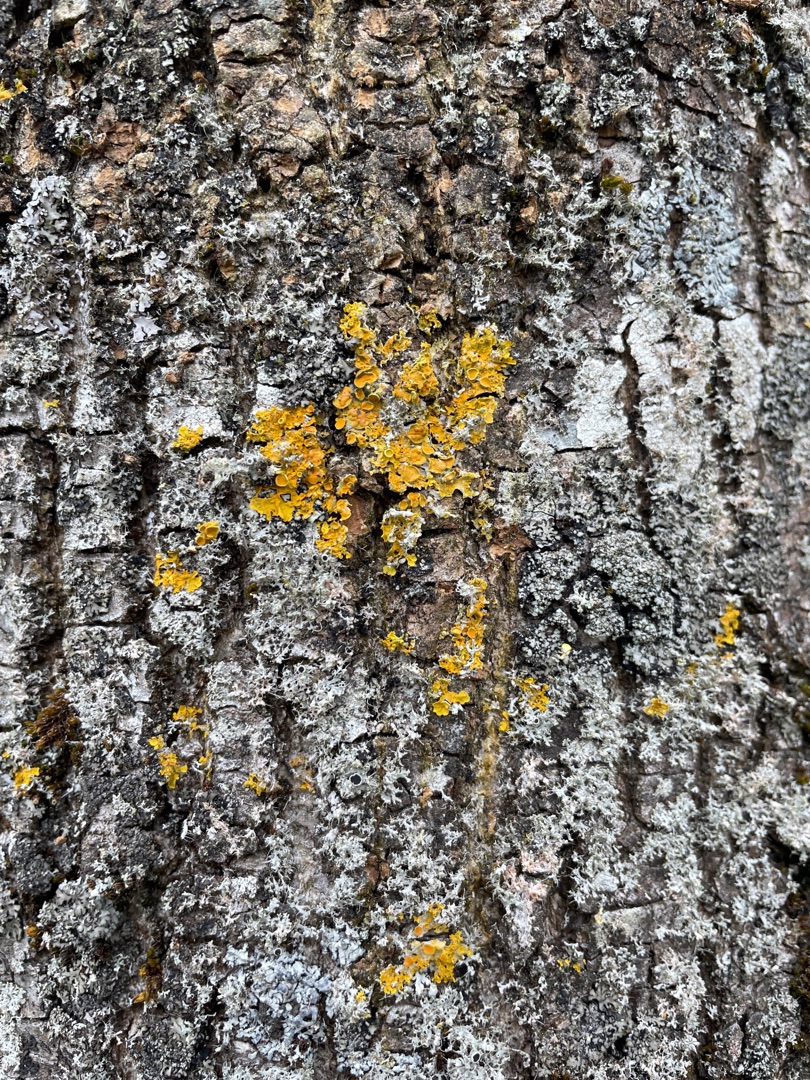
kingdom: Fungi
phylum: Ascomycota
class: Lecanoromycetes
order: Teloschistales
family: Teloschistaceae
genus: Xanthoria
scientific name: Xanthoria parietina
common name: Almindelig væggelav
